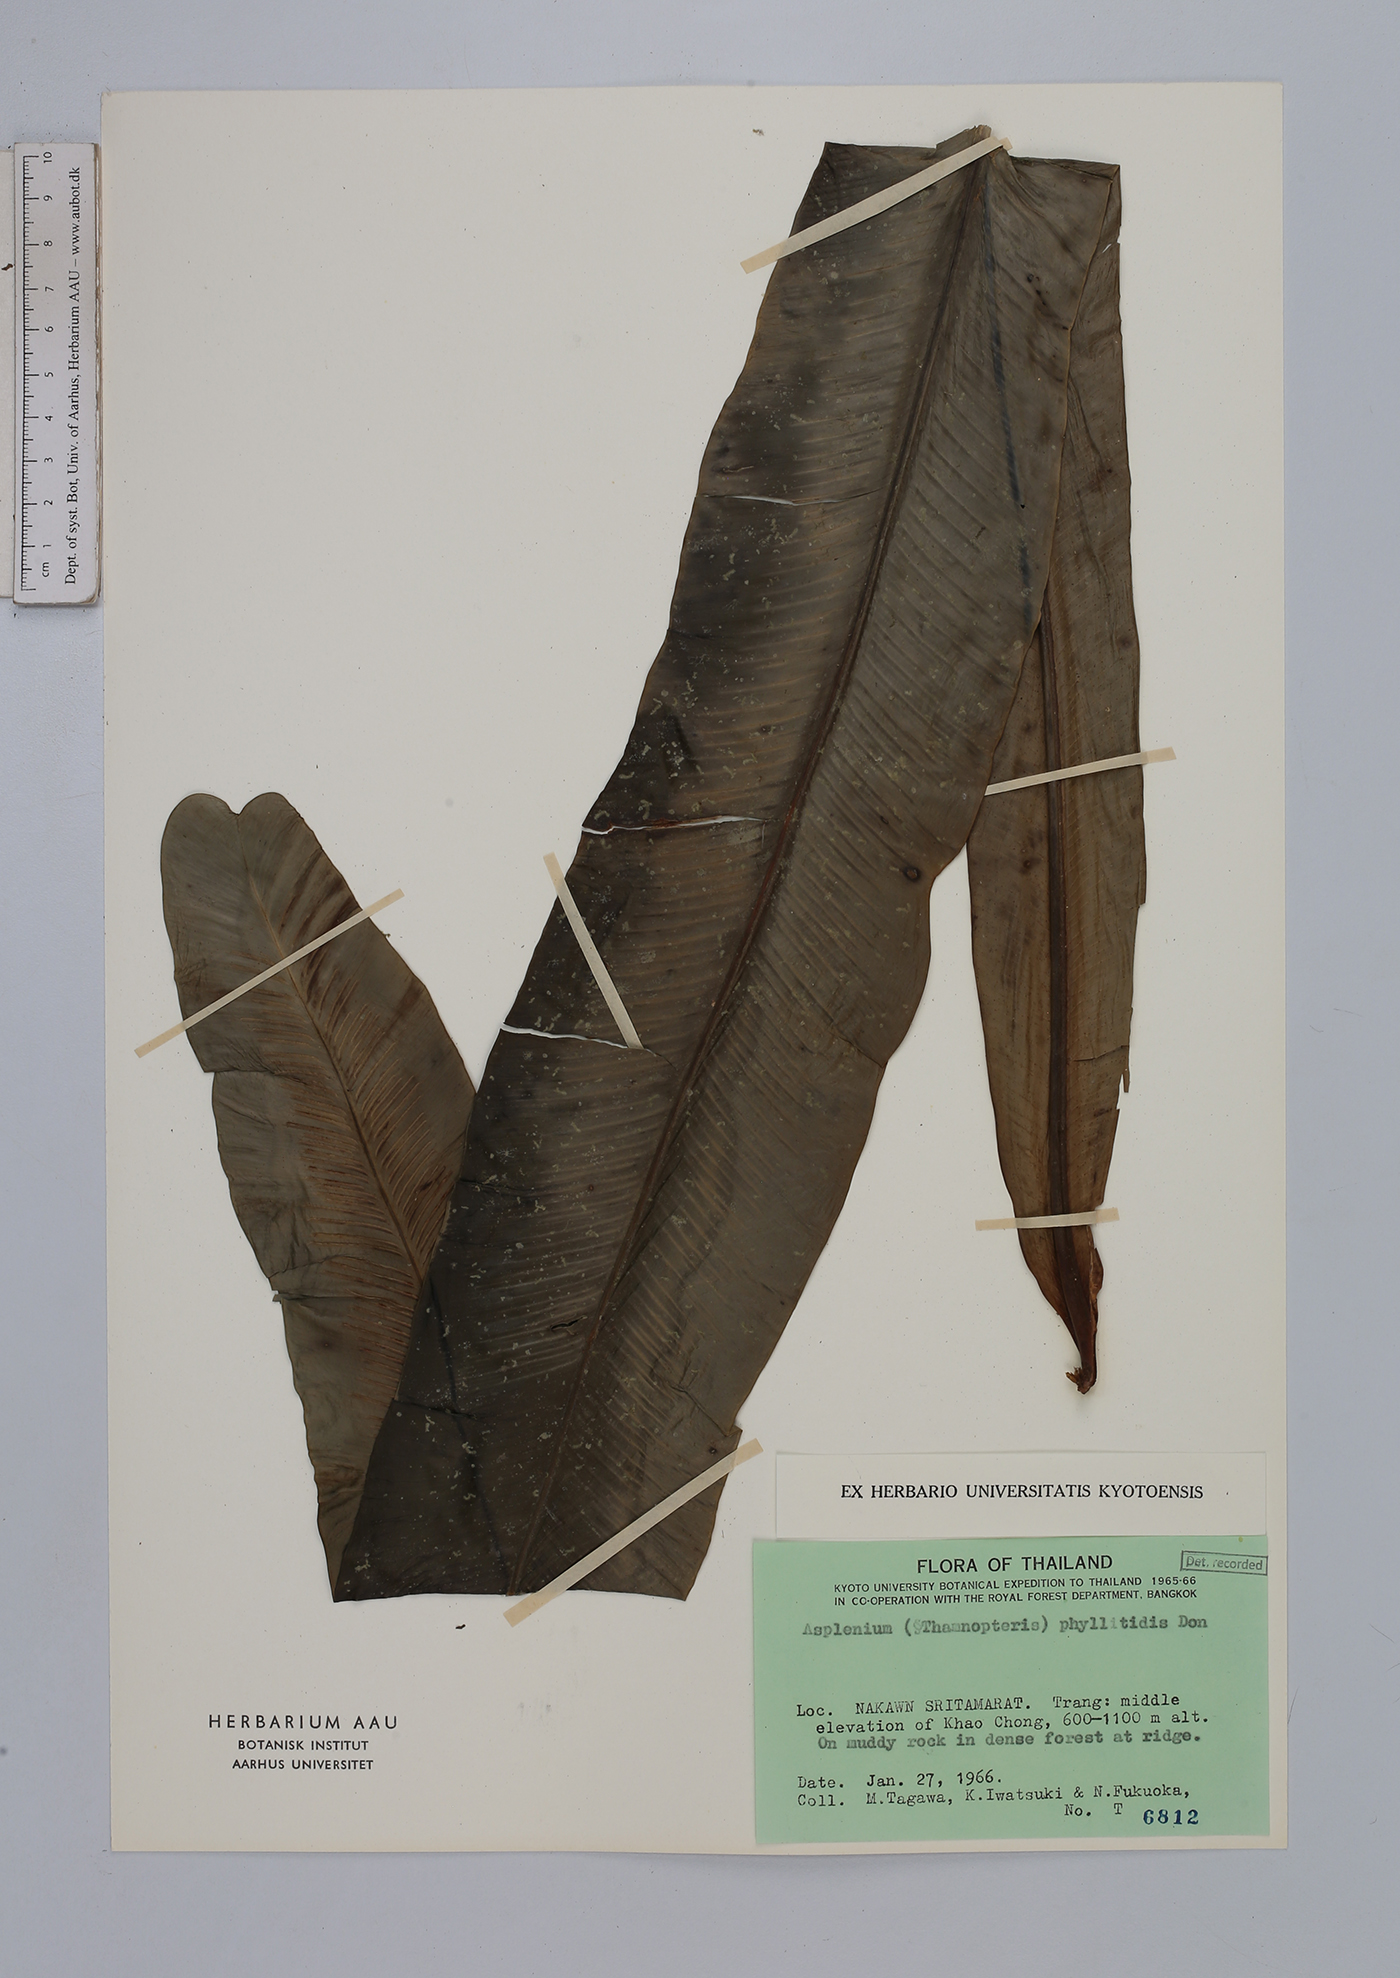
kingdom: Plantae
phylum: Tracheophyta
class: Polypodiopsida
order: Polypodiales
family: Aspleniaceae
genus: Asplenium
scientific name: Asplenium phyllitidis
